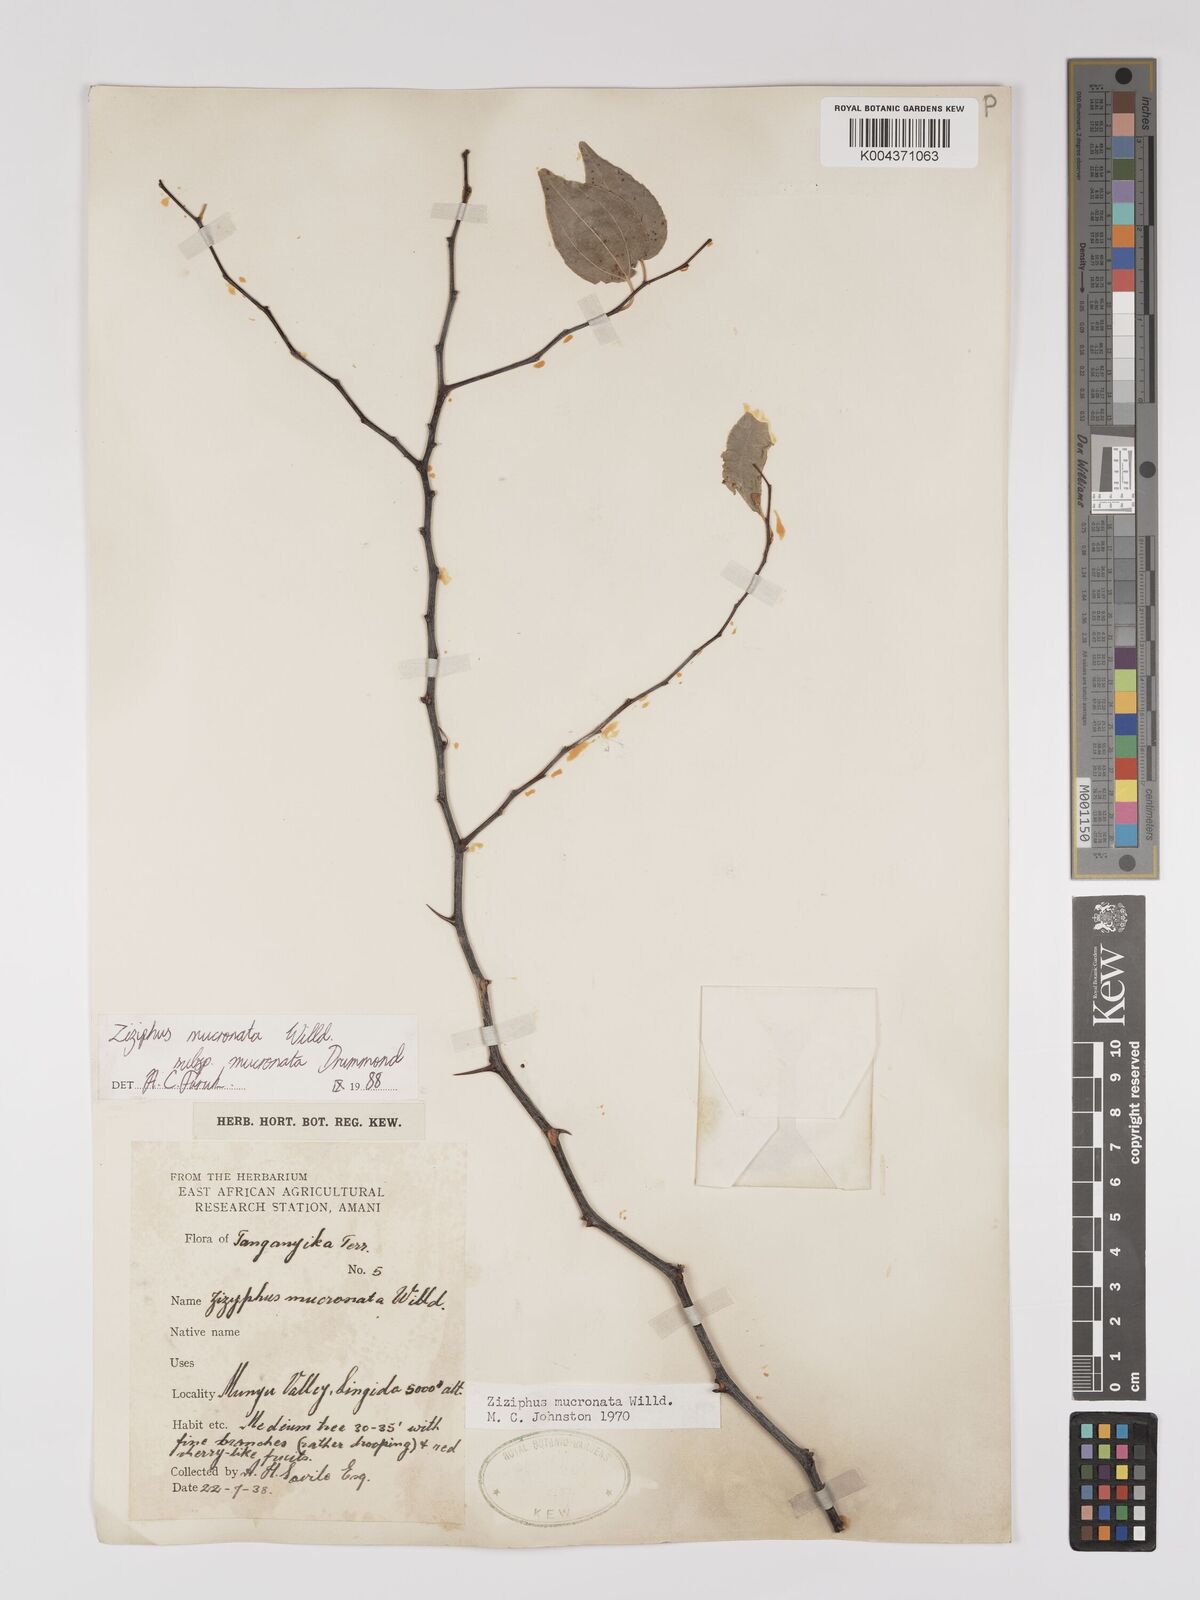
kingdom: Plantae
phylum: Tracheophyta
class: Magnoliopsida
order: Rosales
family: Rhamnaceae
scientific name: Rhamnaceae
